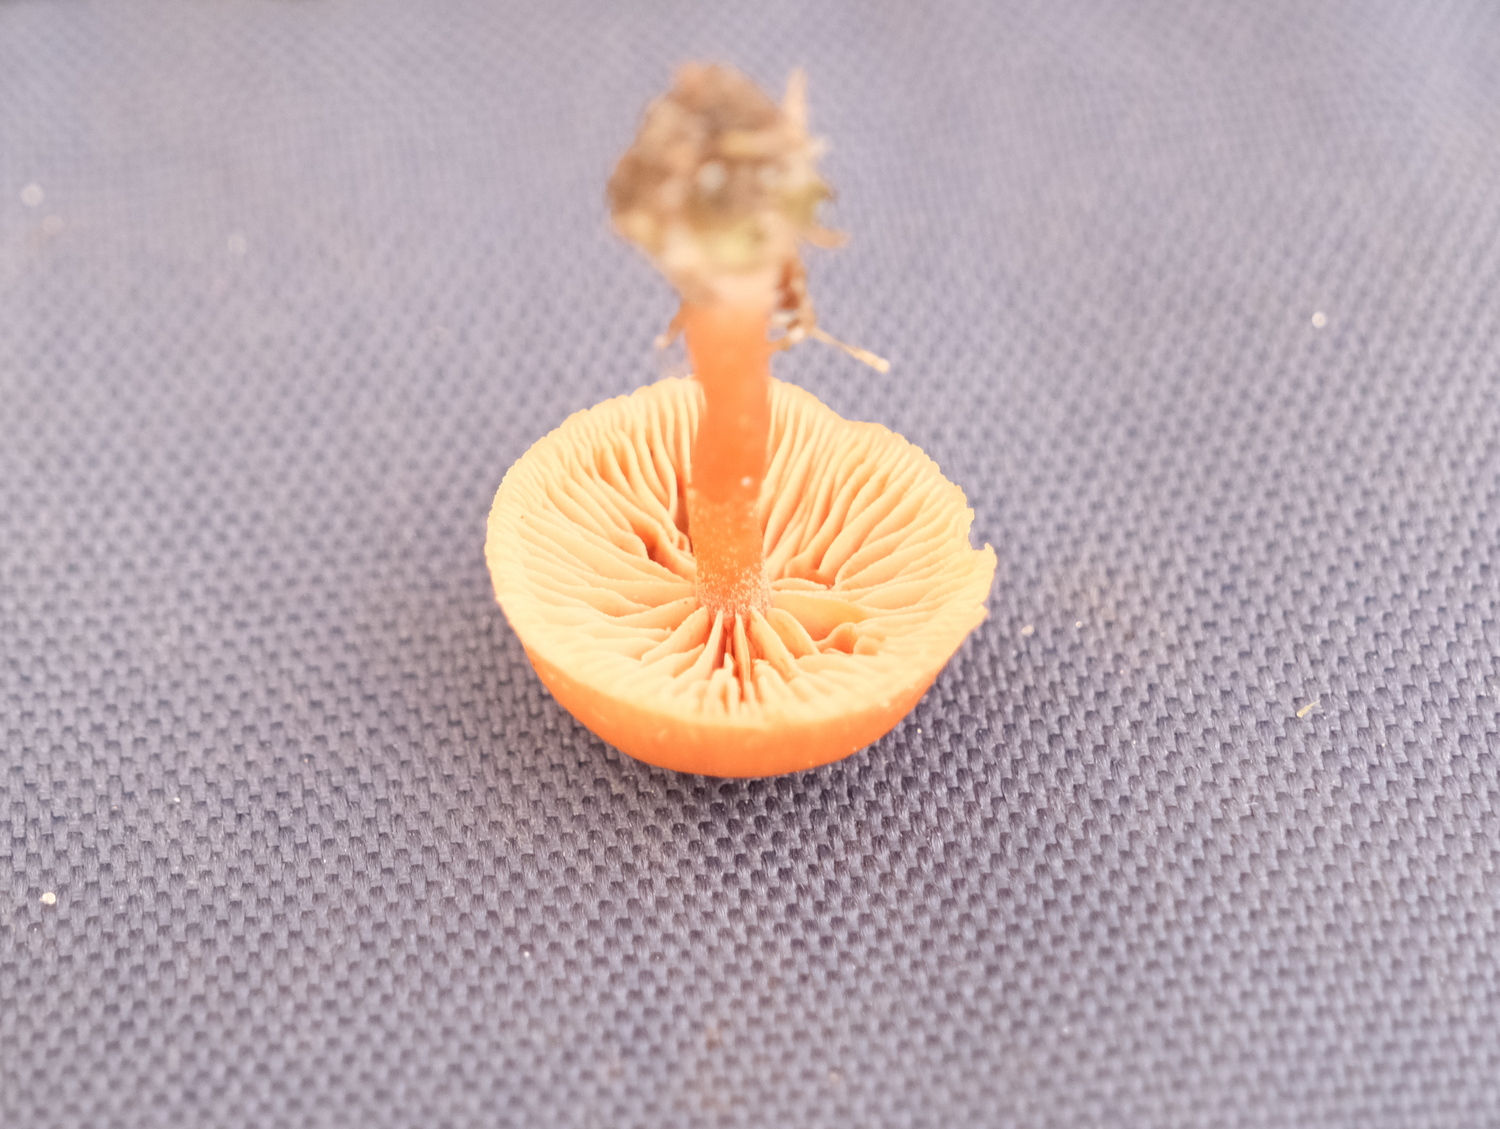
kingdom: Fungi
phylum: Basidiomycota
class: Agaricomycetes
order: Agaricales
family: Tubariaceae
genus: Tubaria
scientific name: Tubaria furfuracea
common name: kliddet fnughat
